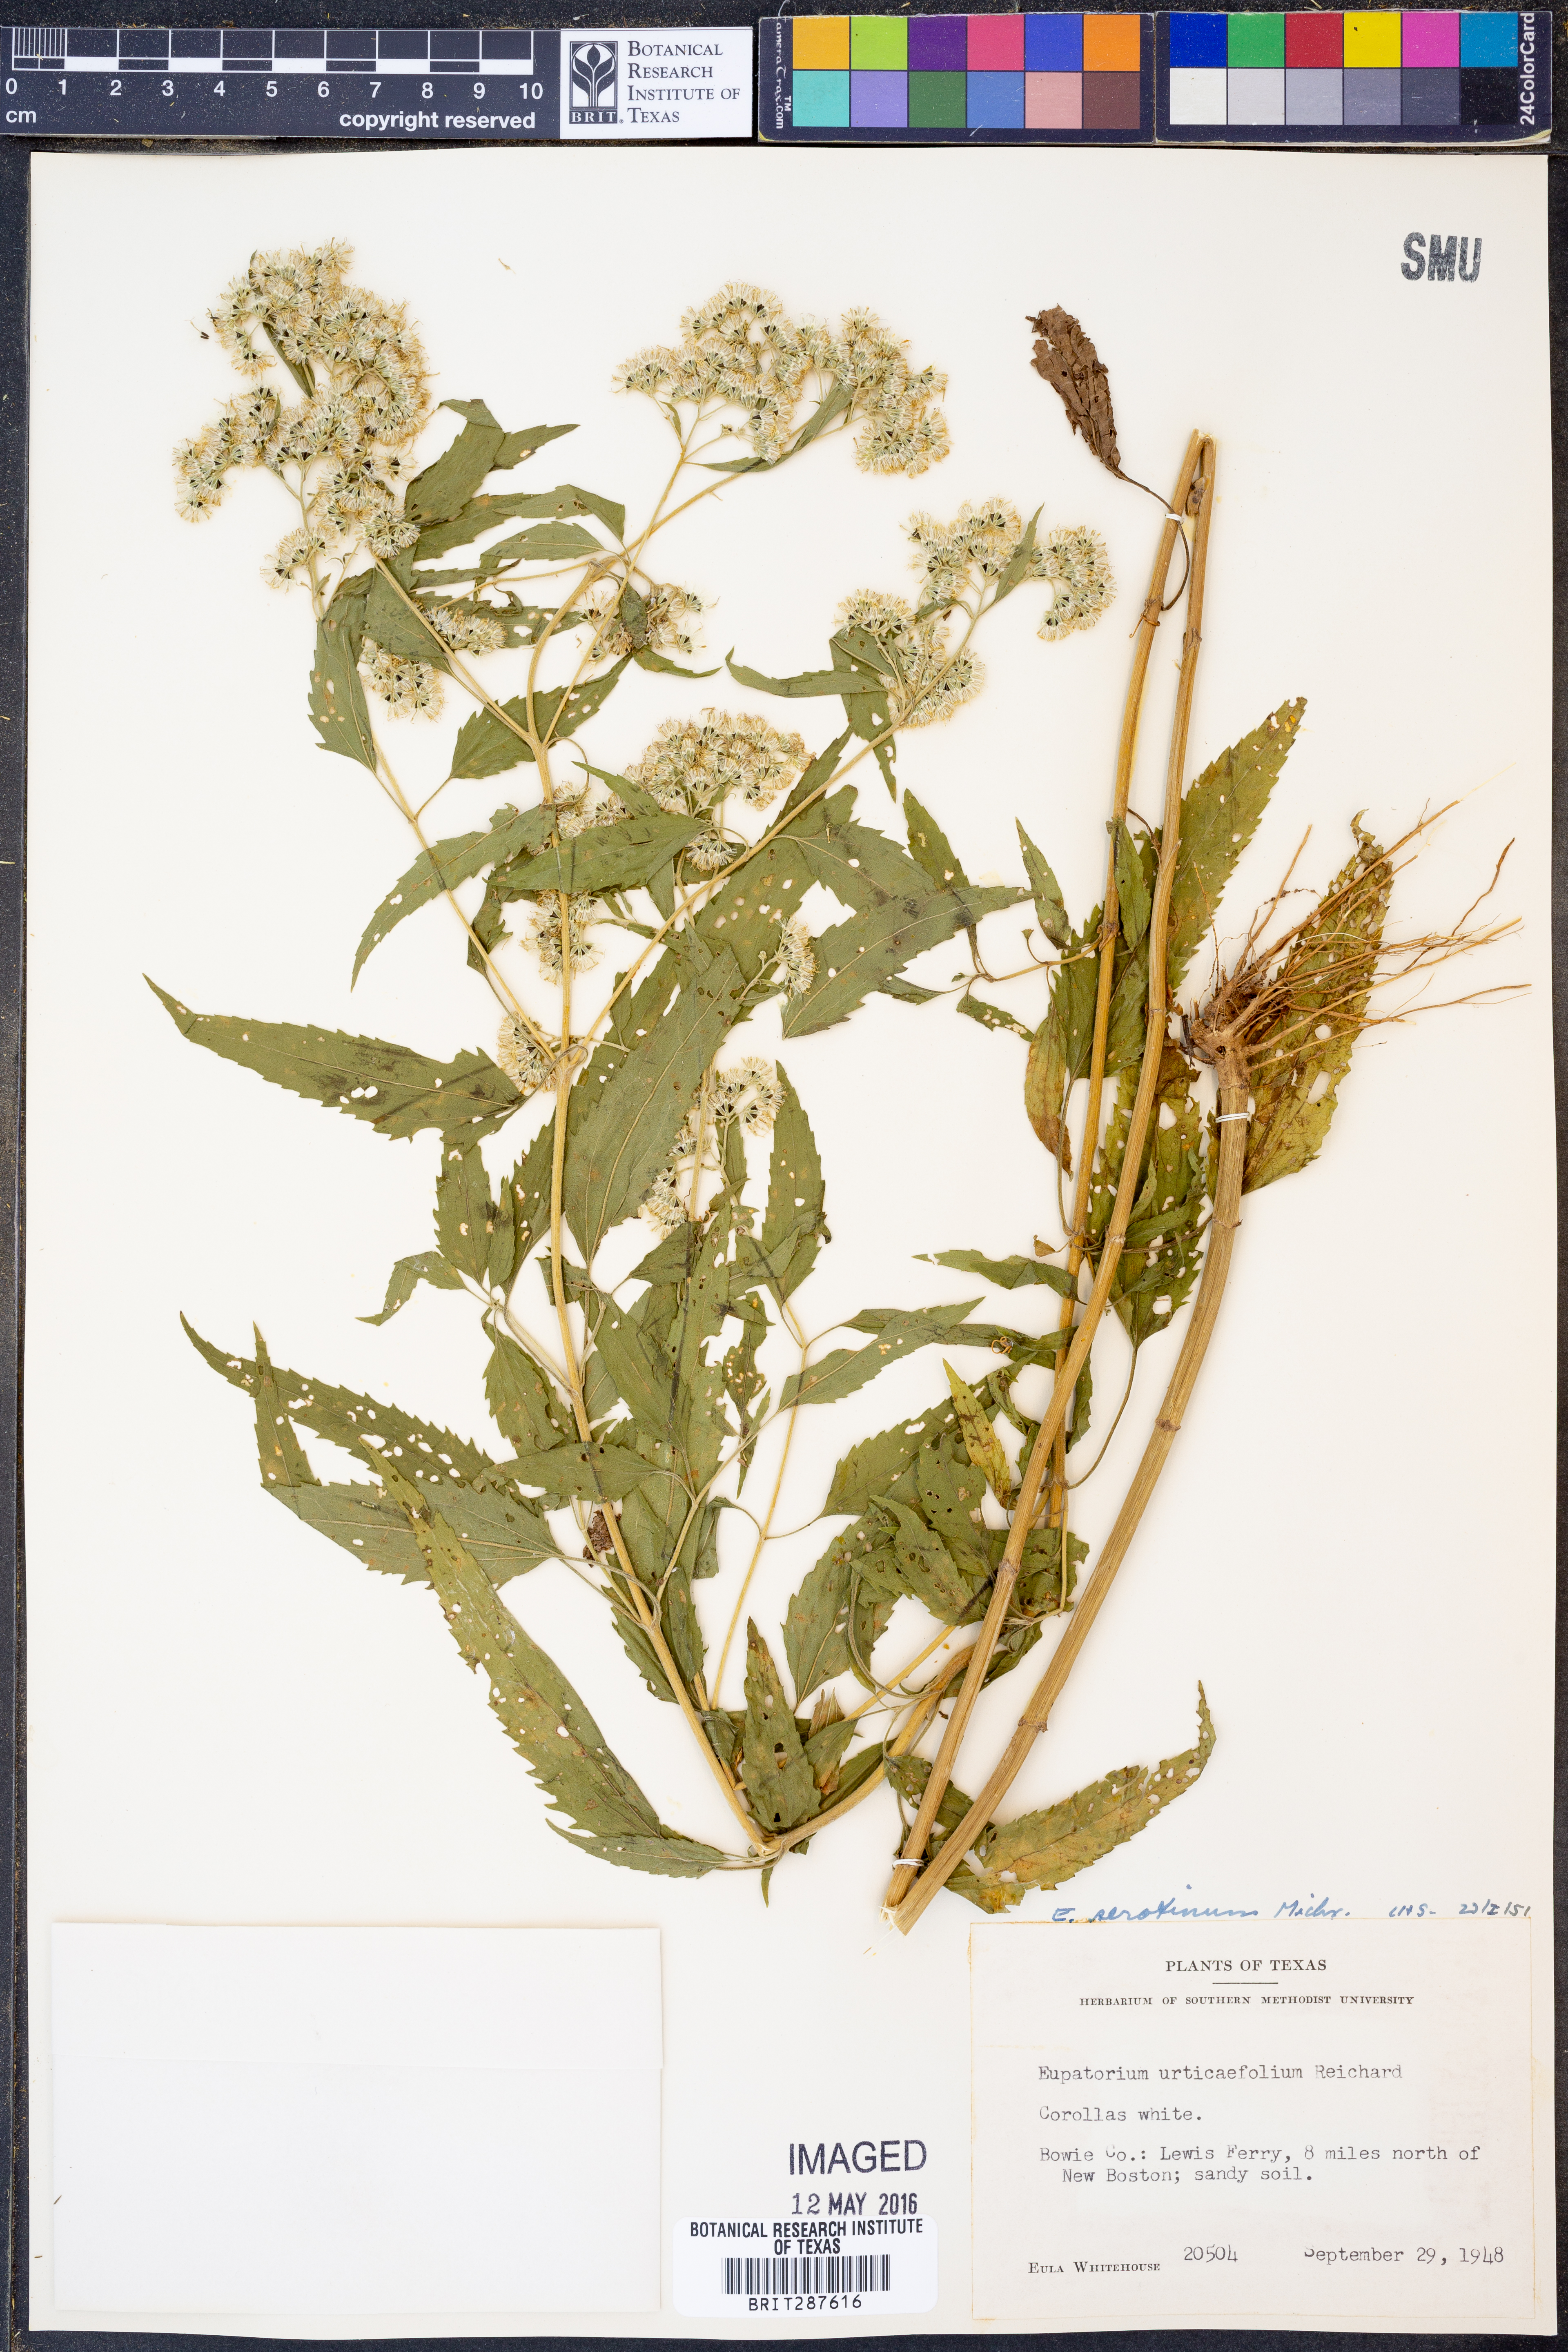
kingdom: Plantae
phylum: Tracheophyta
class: Magnoliopsida
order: Asterales
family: Asteraceae
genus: Eupatorium
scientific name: Eupatorium serotinum
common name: Late boneset
